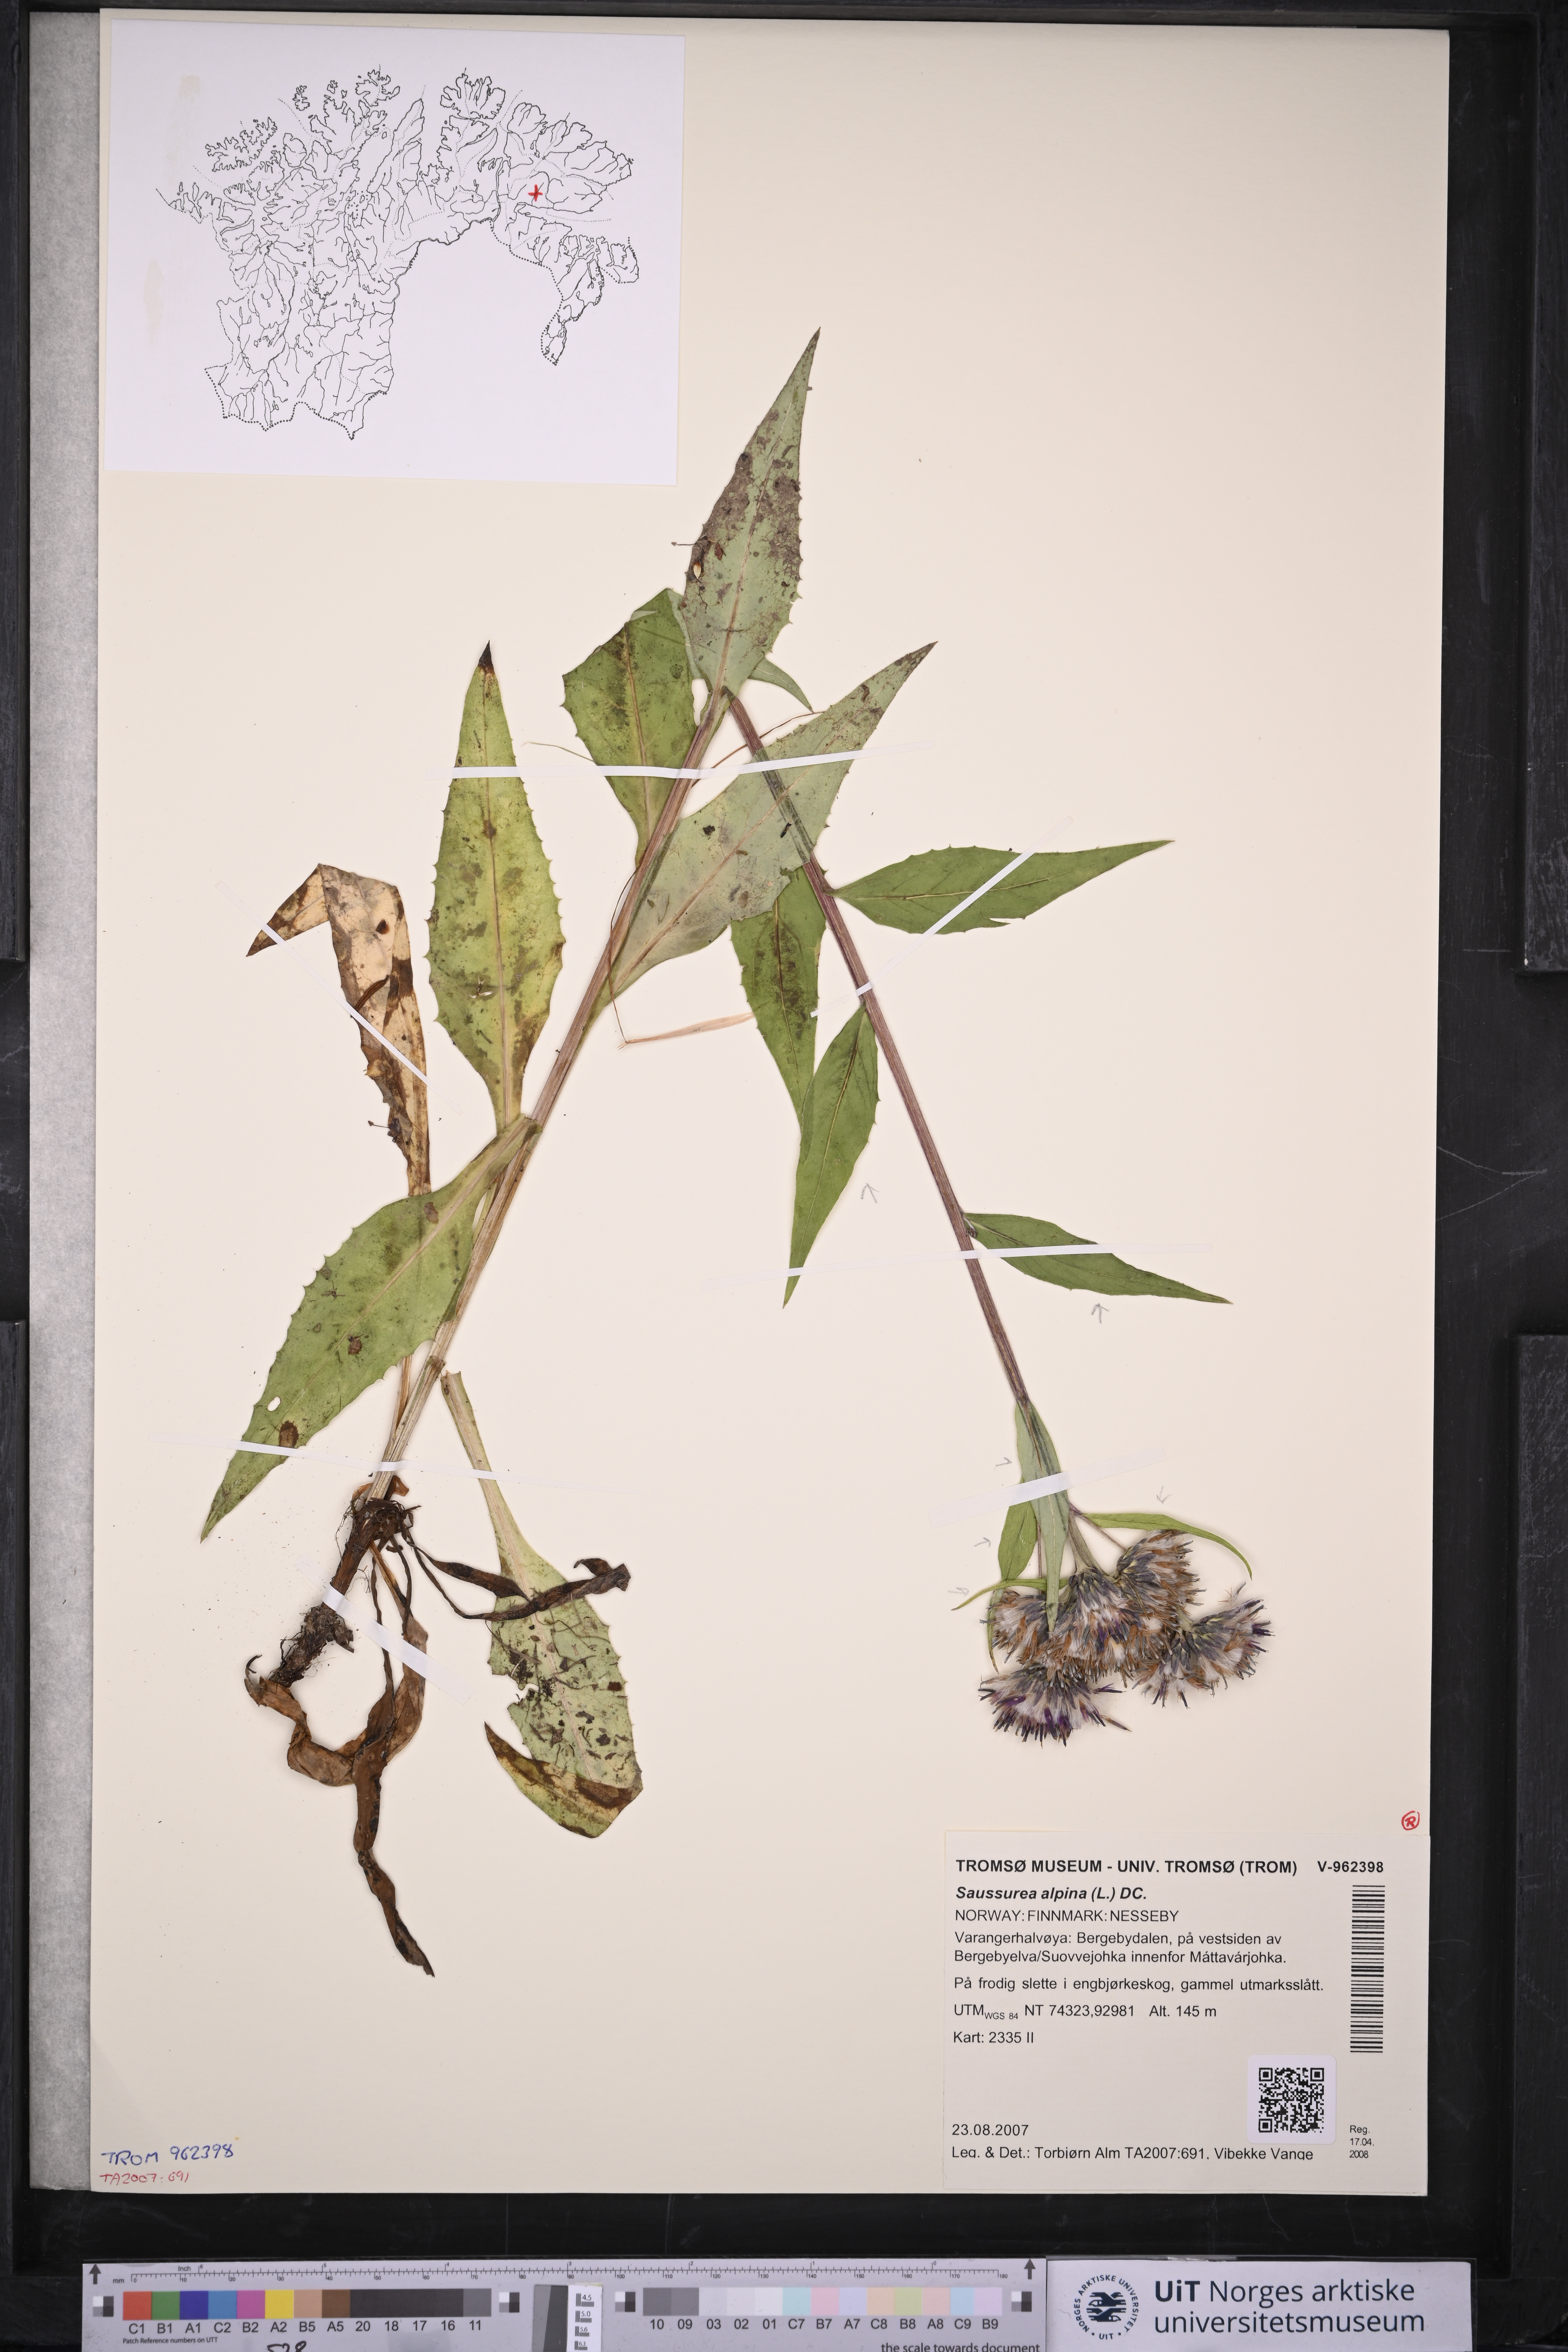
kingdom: Plantae
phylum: Tracheophyta
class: Magnoliopsida
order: Asterales
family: Asteraceae
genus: Saussurea
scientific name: Saussurea alpina
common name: Alpine saw-wort
